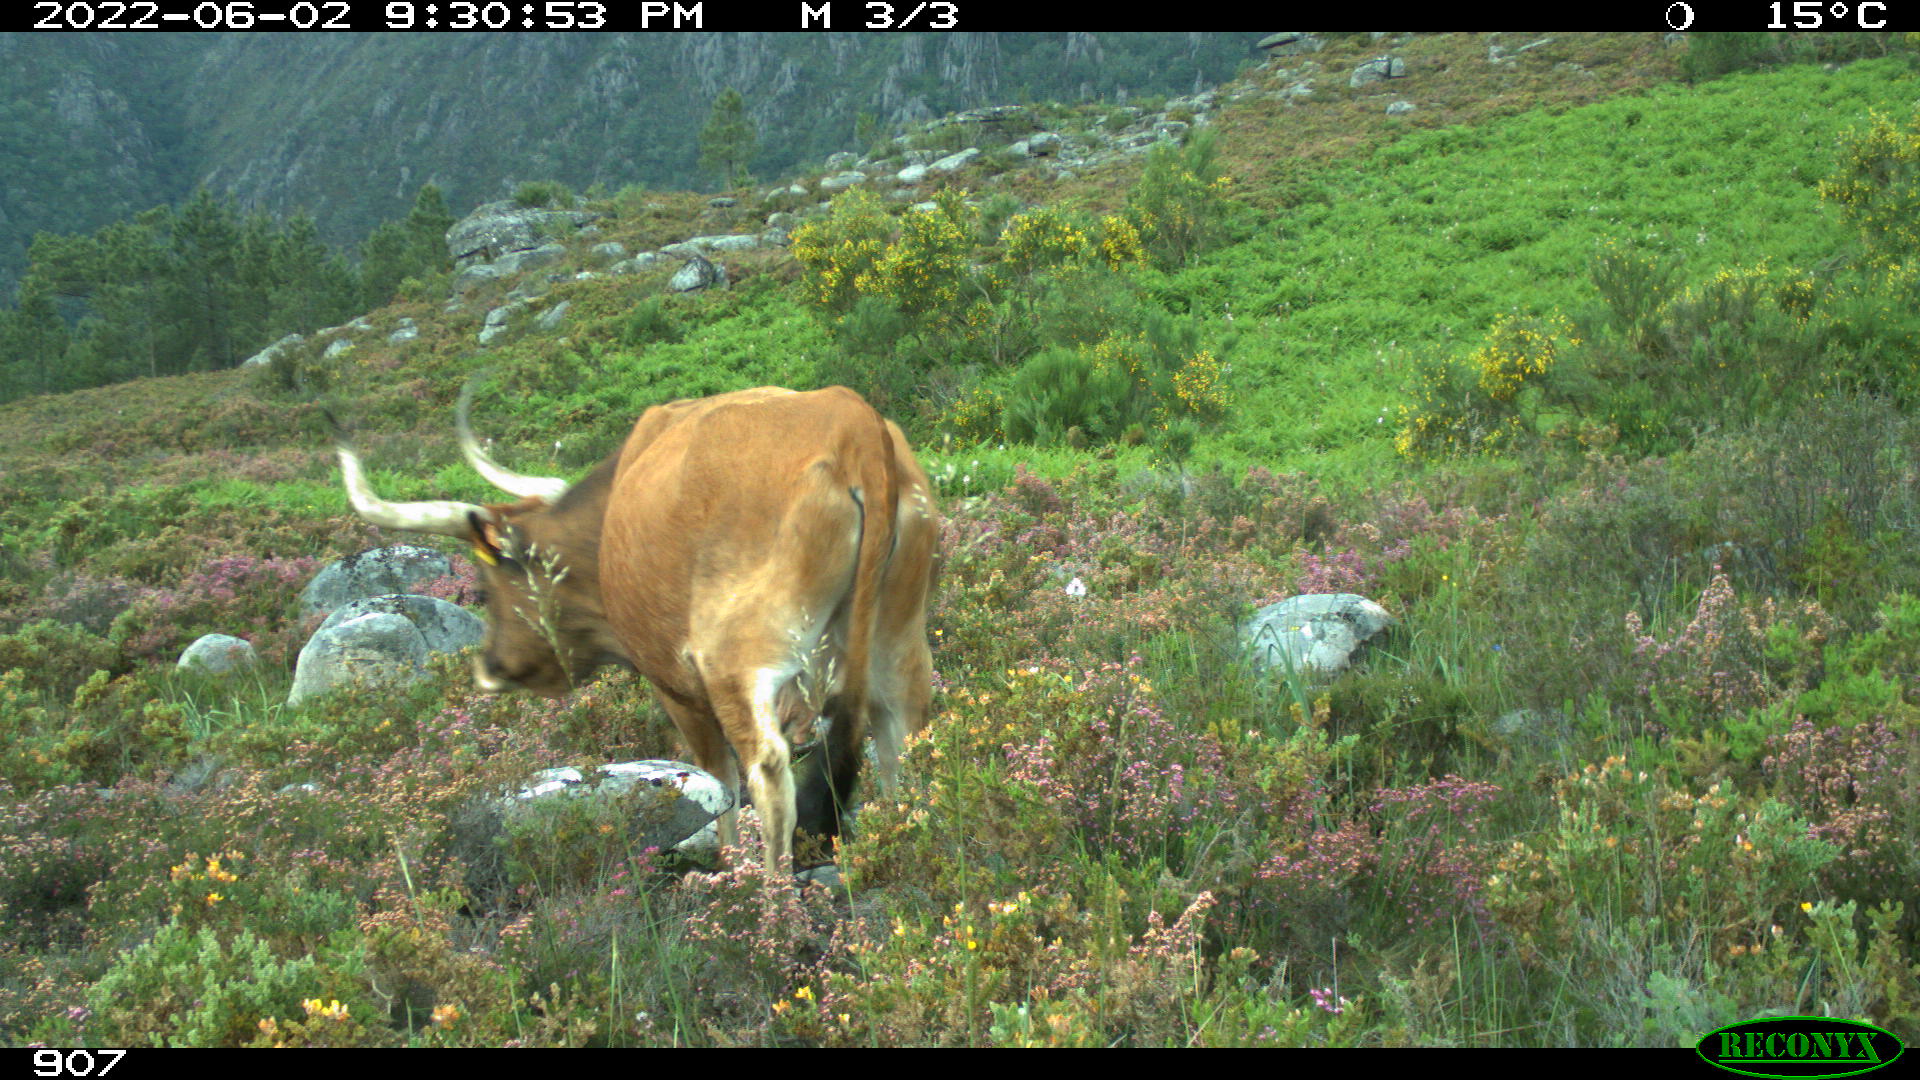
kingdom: Animalia
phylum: Chordata
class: Mammalia
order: Artiodactyla
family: Bovidae
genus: Bos
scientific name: Bos taurus
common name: Domesticated cattle
